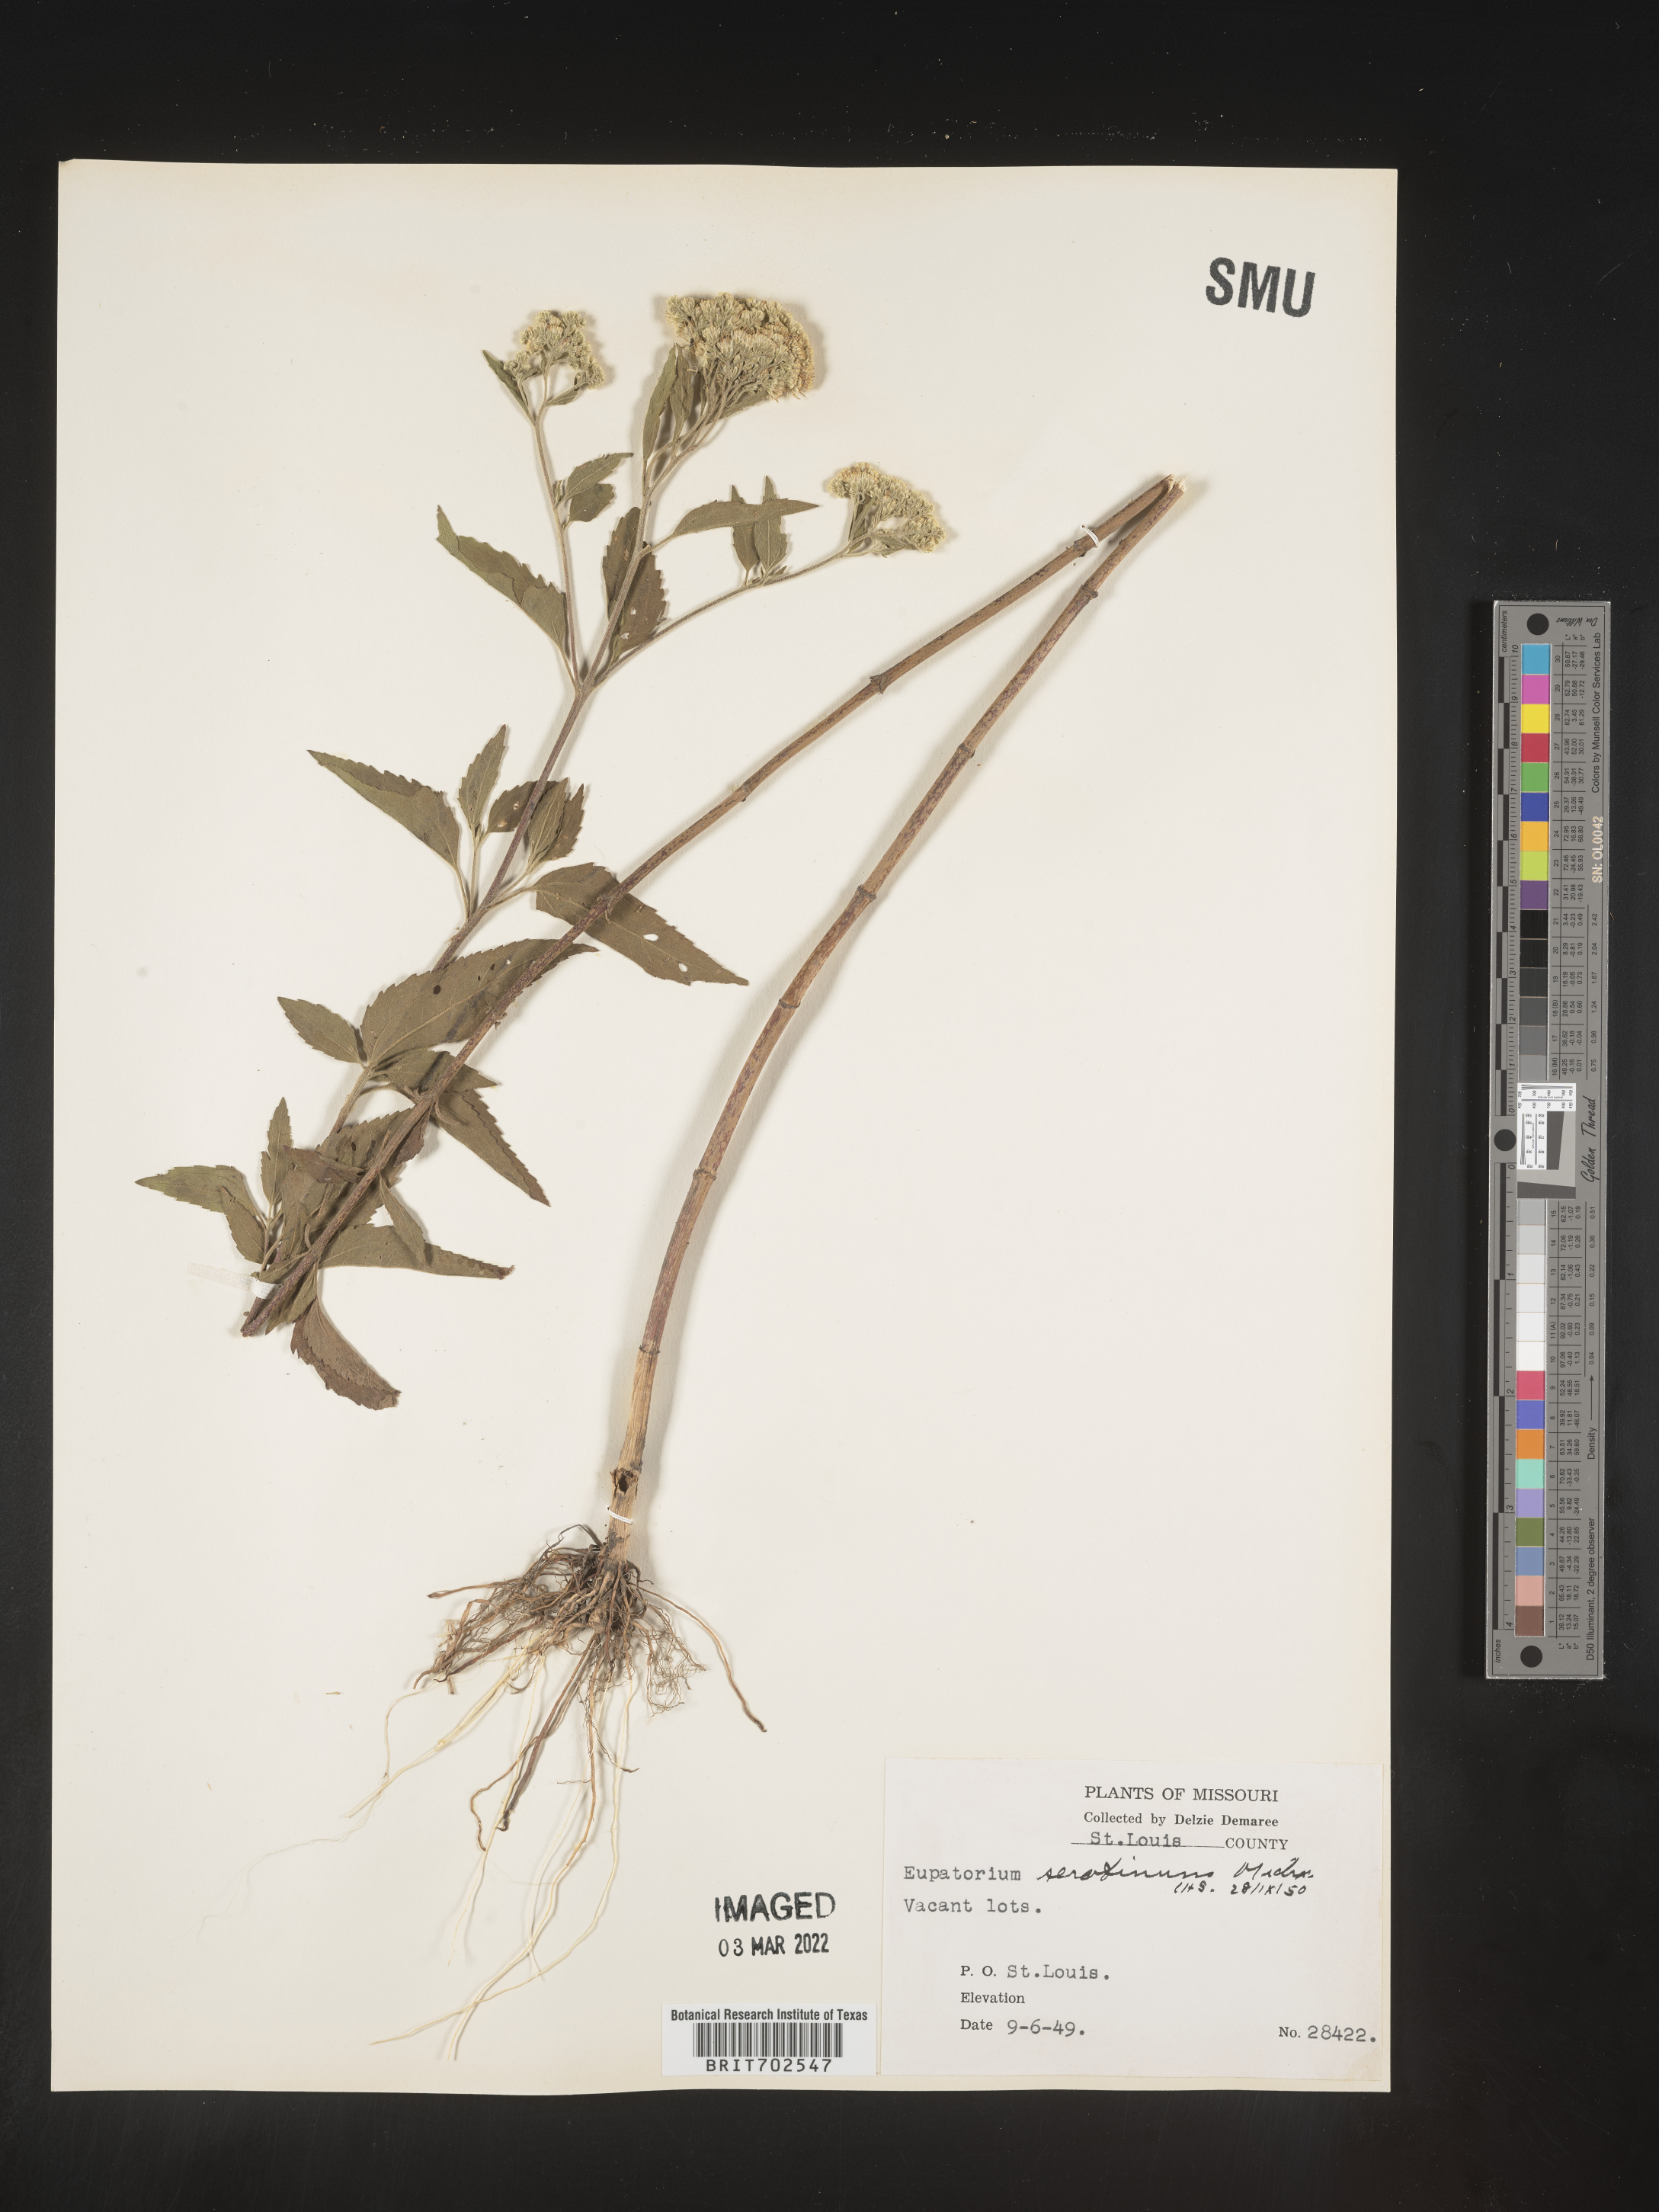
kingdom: Plantae
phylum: Tracheophyta
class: Magnoliopsida
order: Asterales
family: Asteraceae
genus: Eupatorium
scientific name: Eupatorium serotinum
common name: Late boneset
